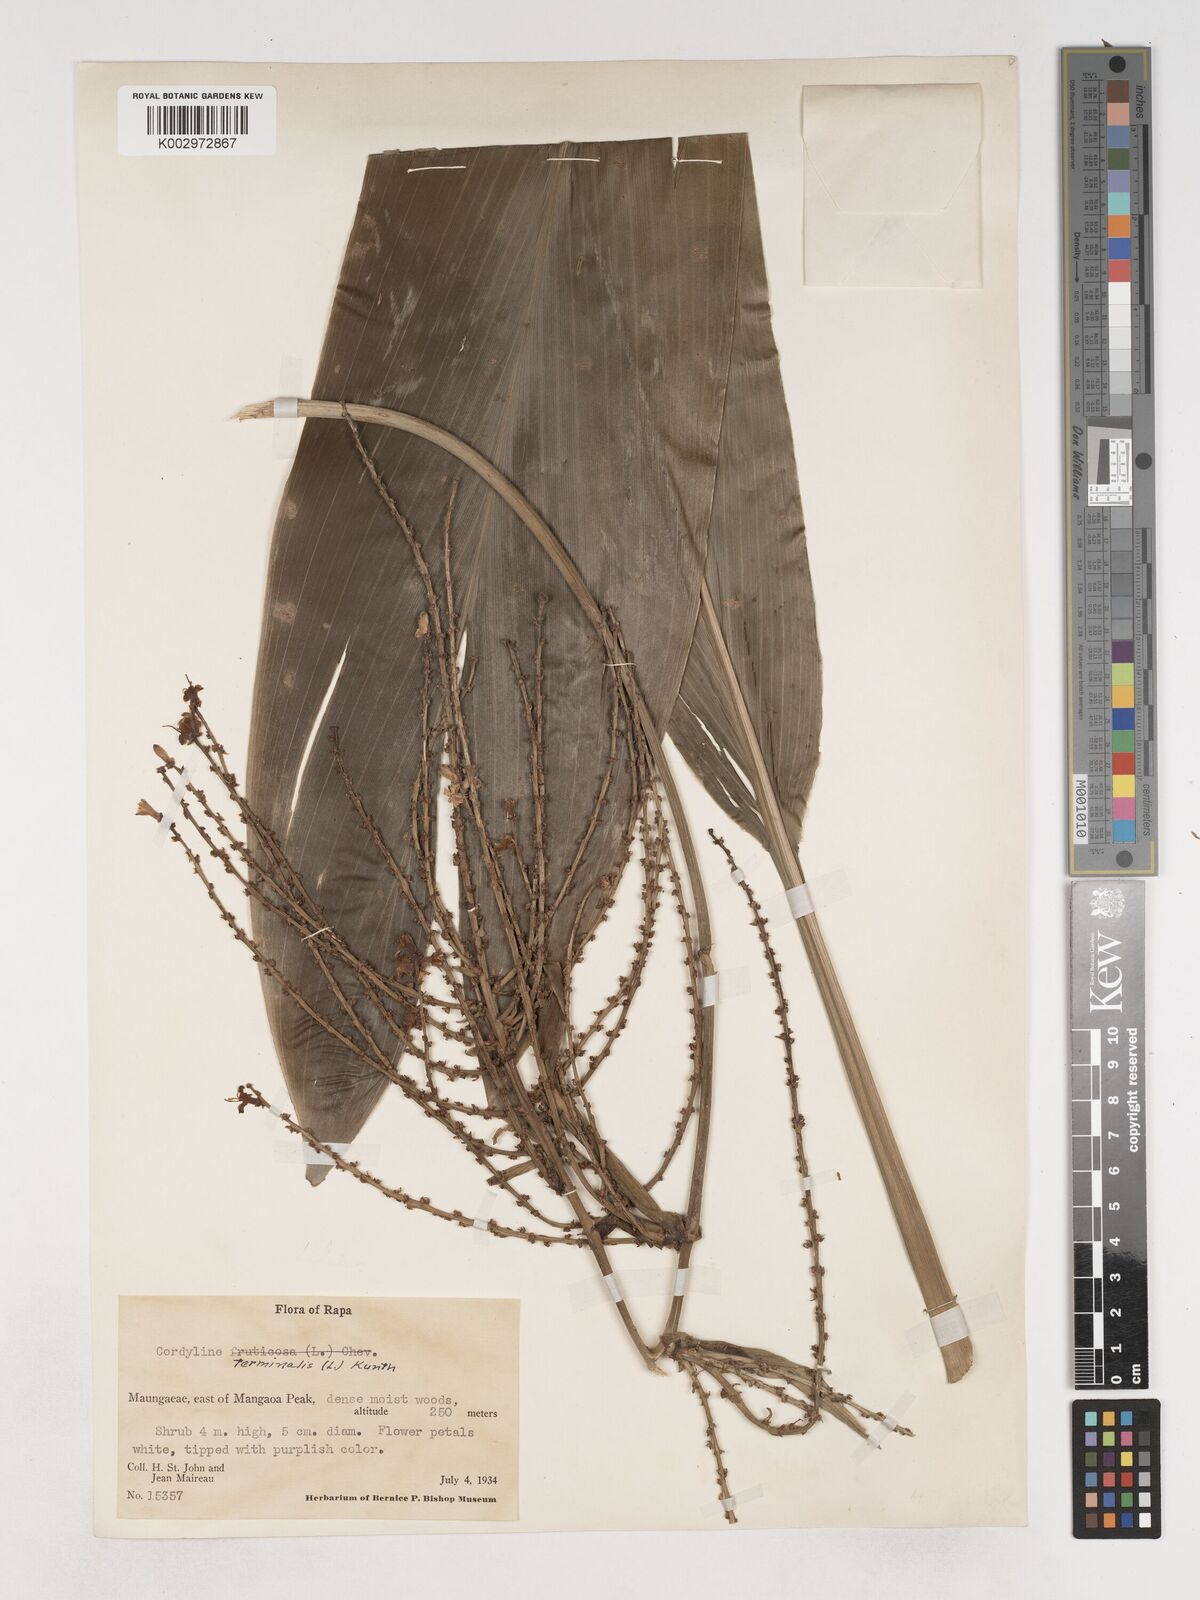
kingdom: Plantae
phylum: Tracheophyta
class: Liliopsida
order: Asparagales
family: Asparagaceae
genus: Cordyline
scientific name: Cordyline fruticosa
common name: Good-luck-plant
